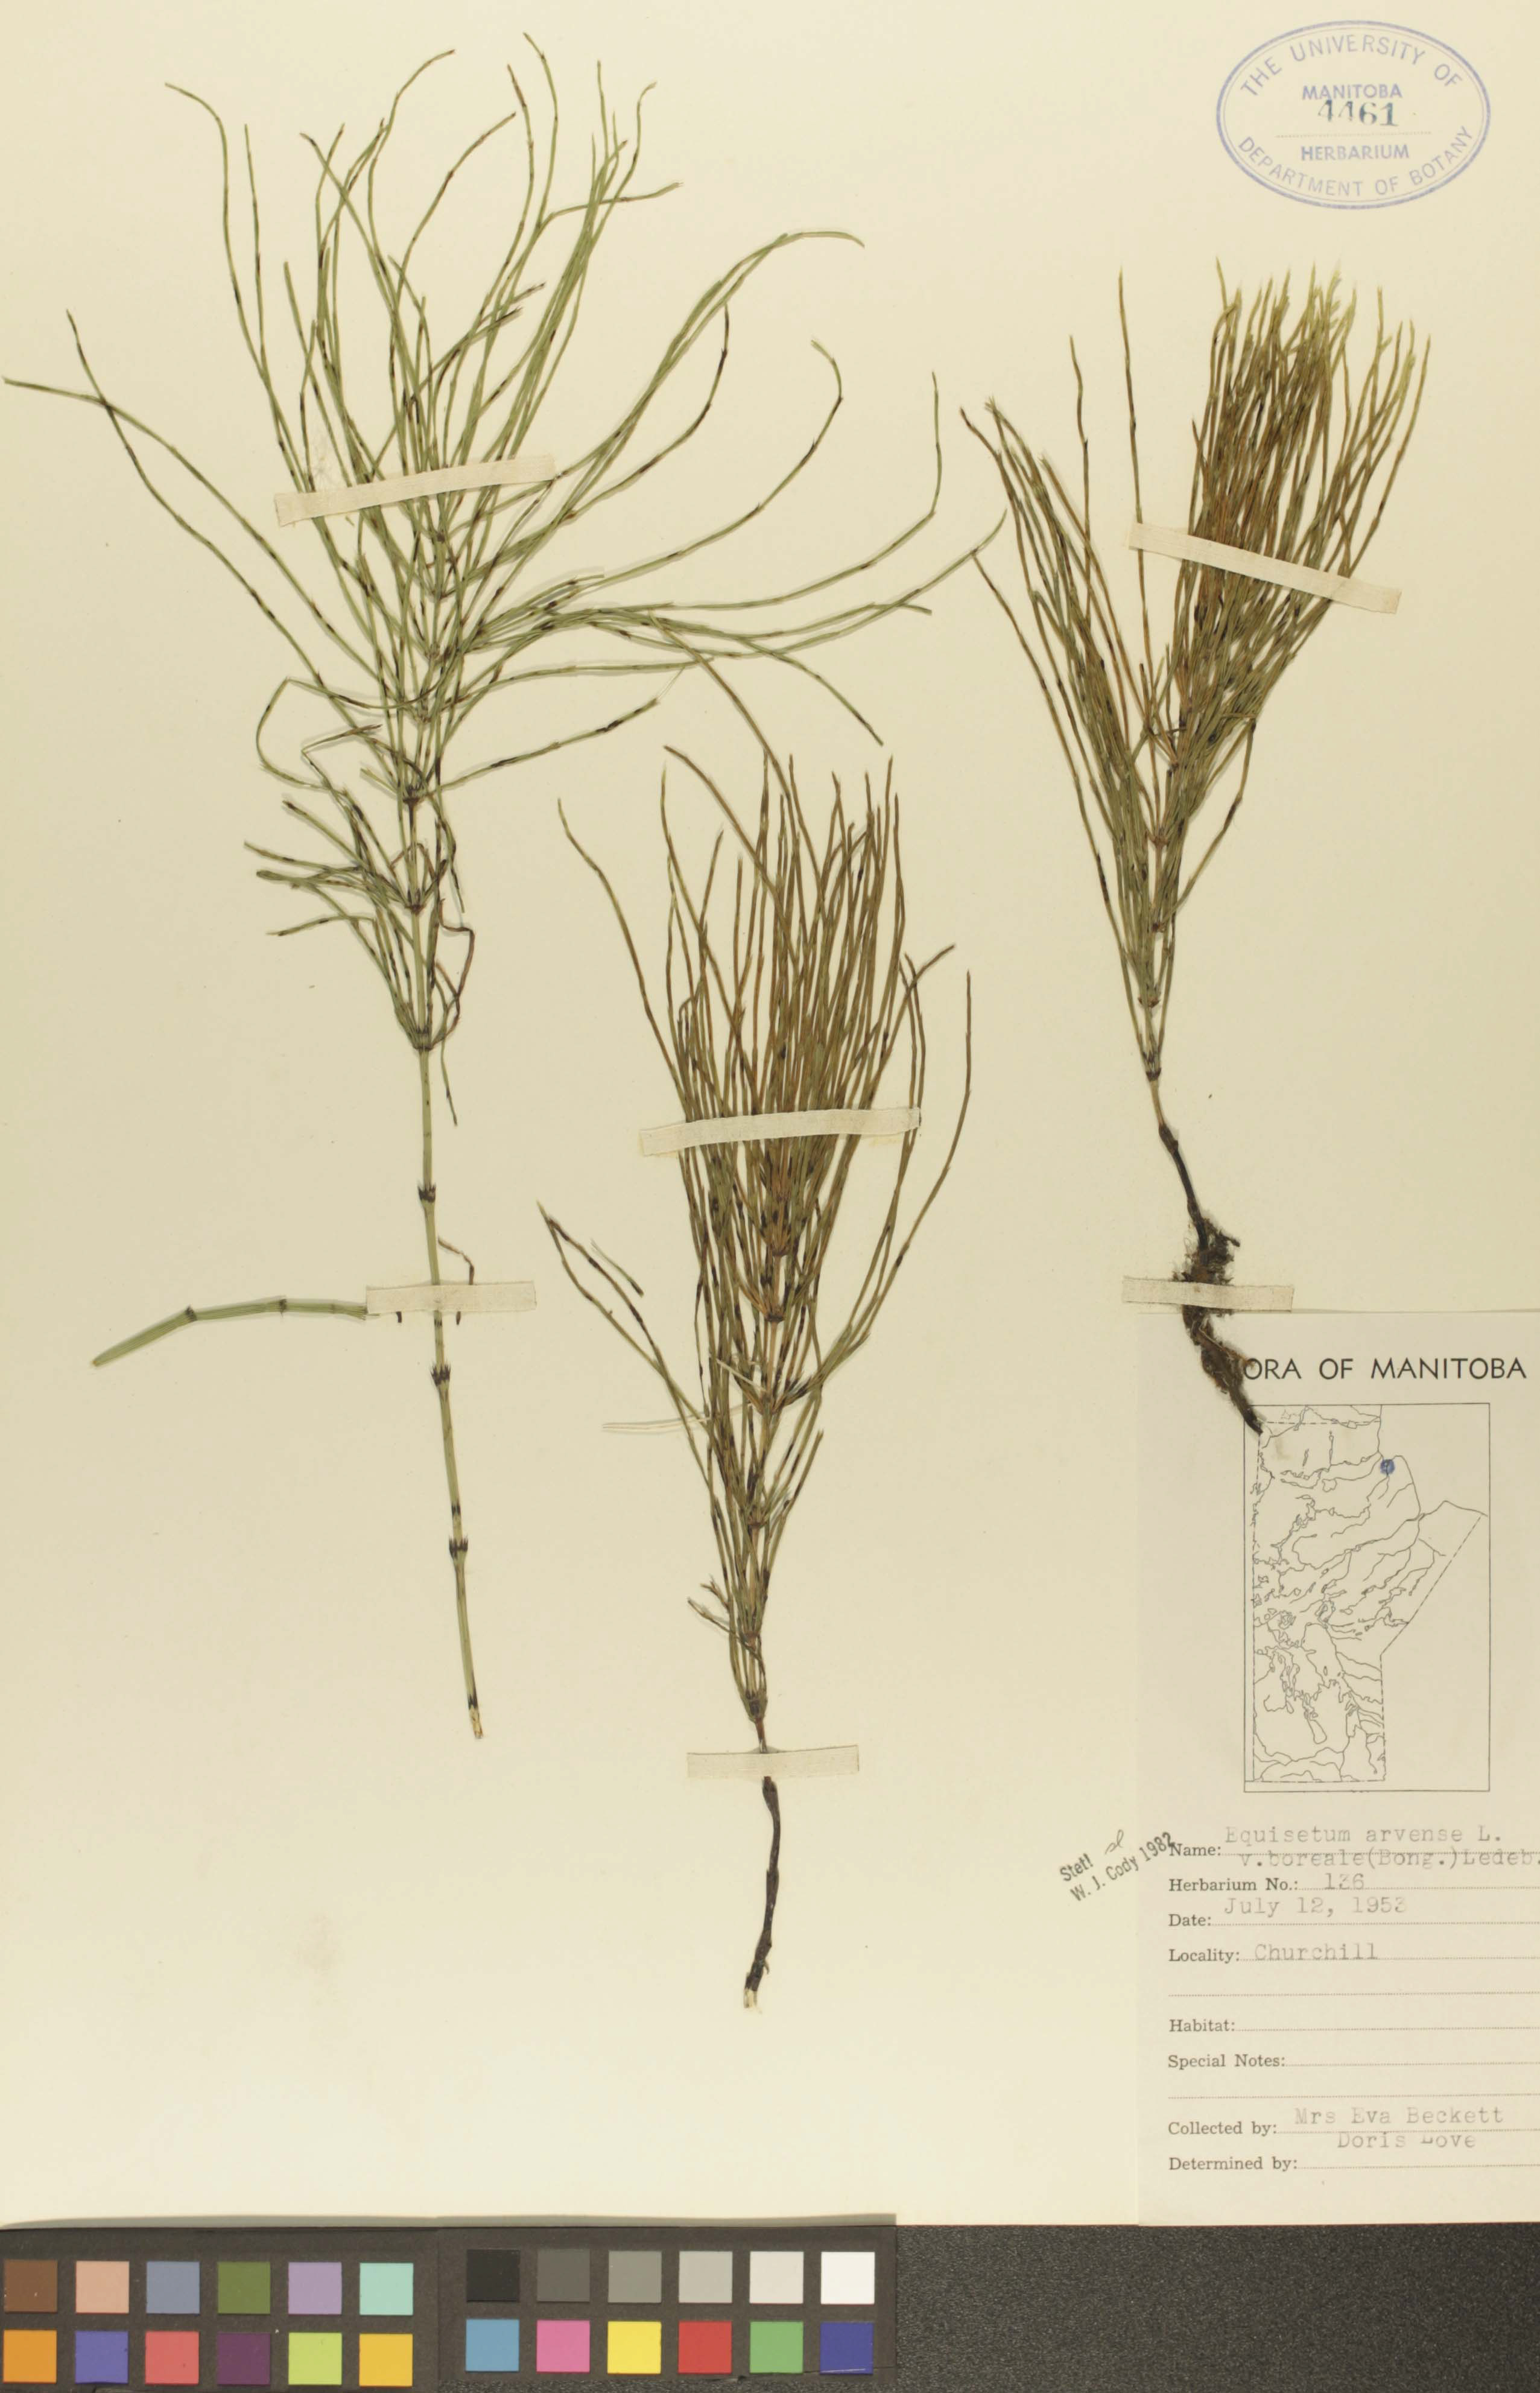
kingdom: Plantae
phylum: Tracheophyta
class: Polypodiopsida
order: Equisetales
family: Equisetaceae
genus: Equisetum
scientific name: Equisetum arvense
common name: Field horsetail
